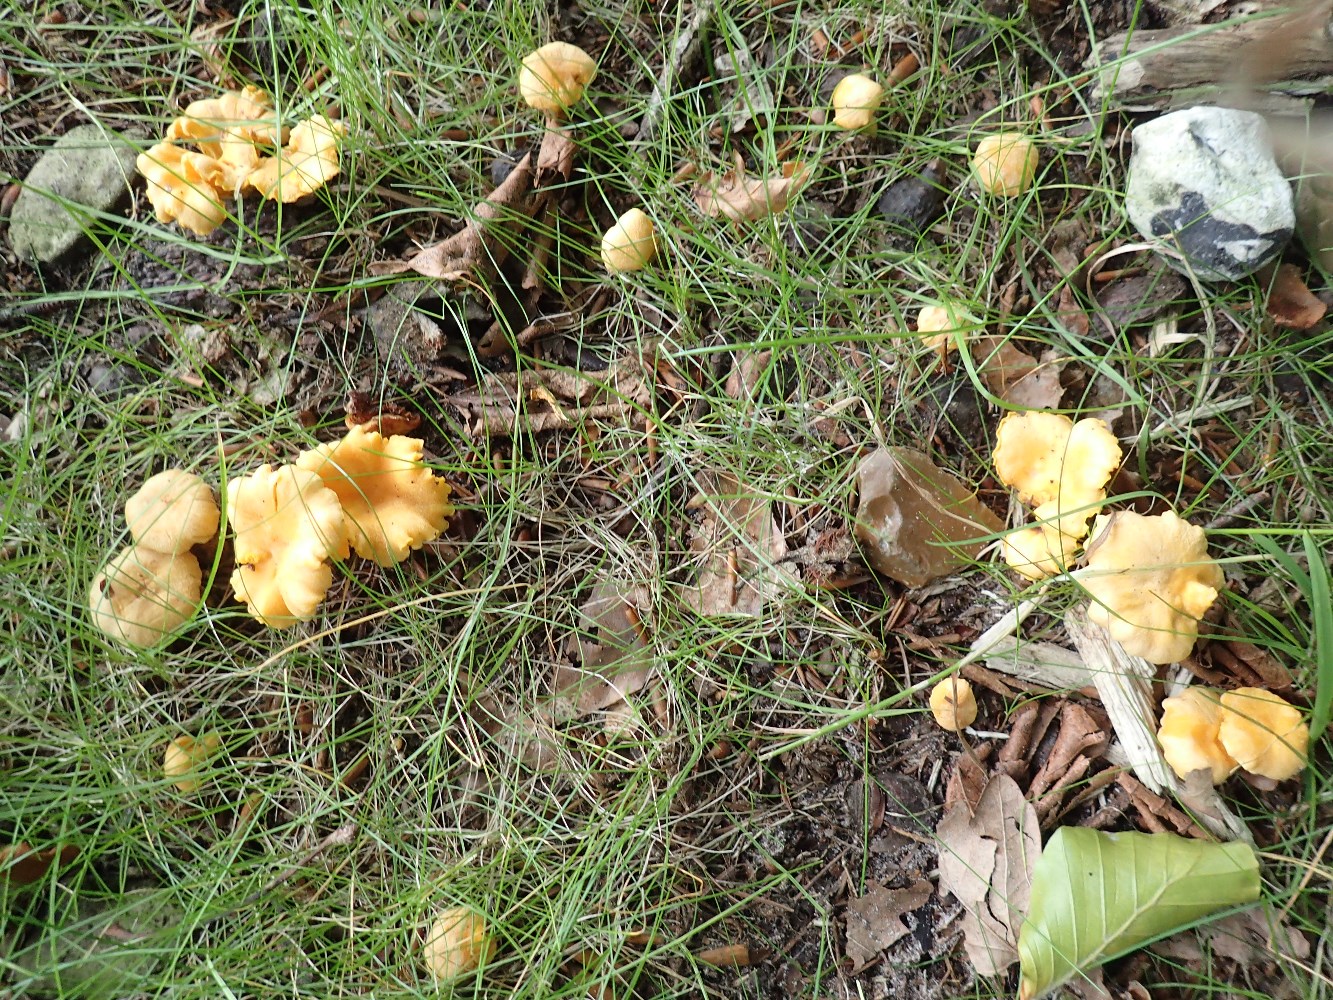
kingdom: Fungi
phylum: Basidiomycota
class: Agaricomycetes
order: Cantharellales
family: Hydnaceae
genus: Cantharellus
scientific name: Cantharellus pallens
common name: bleg kantarel
